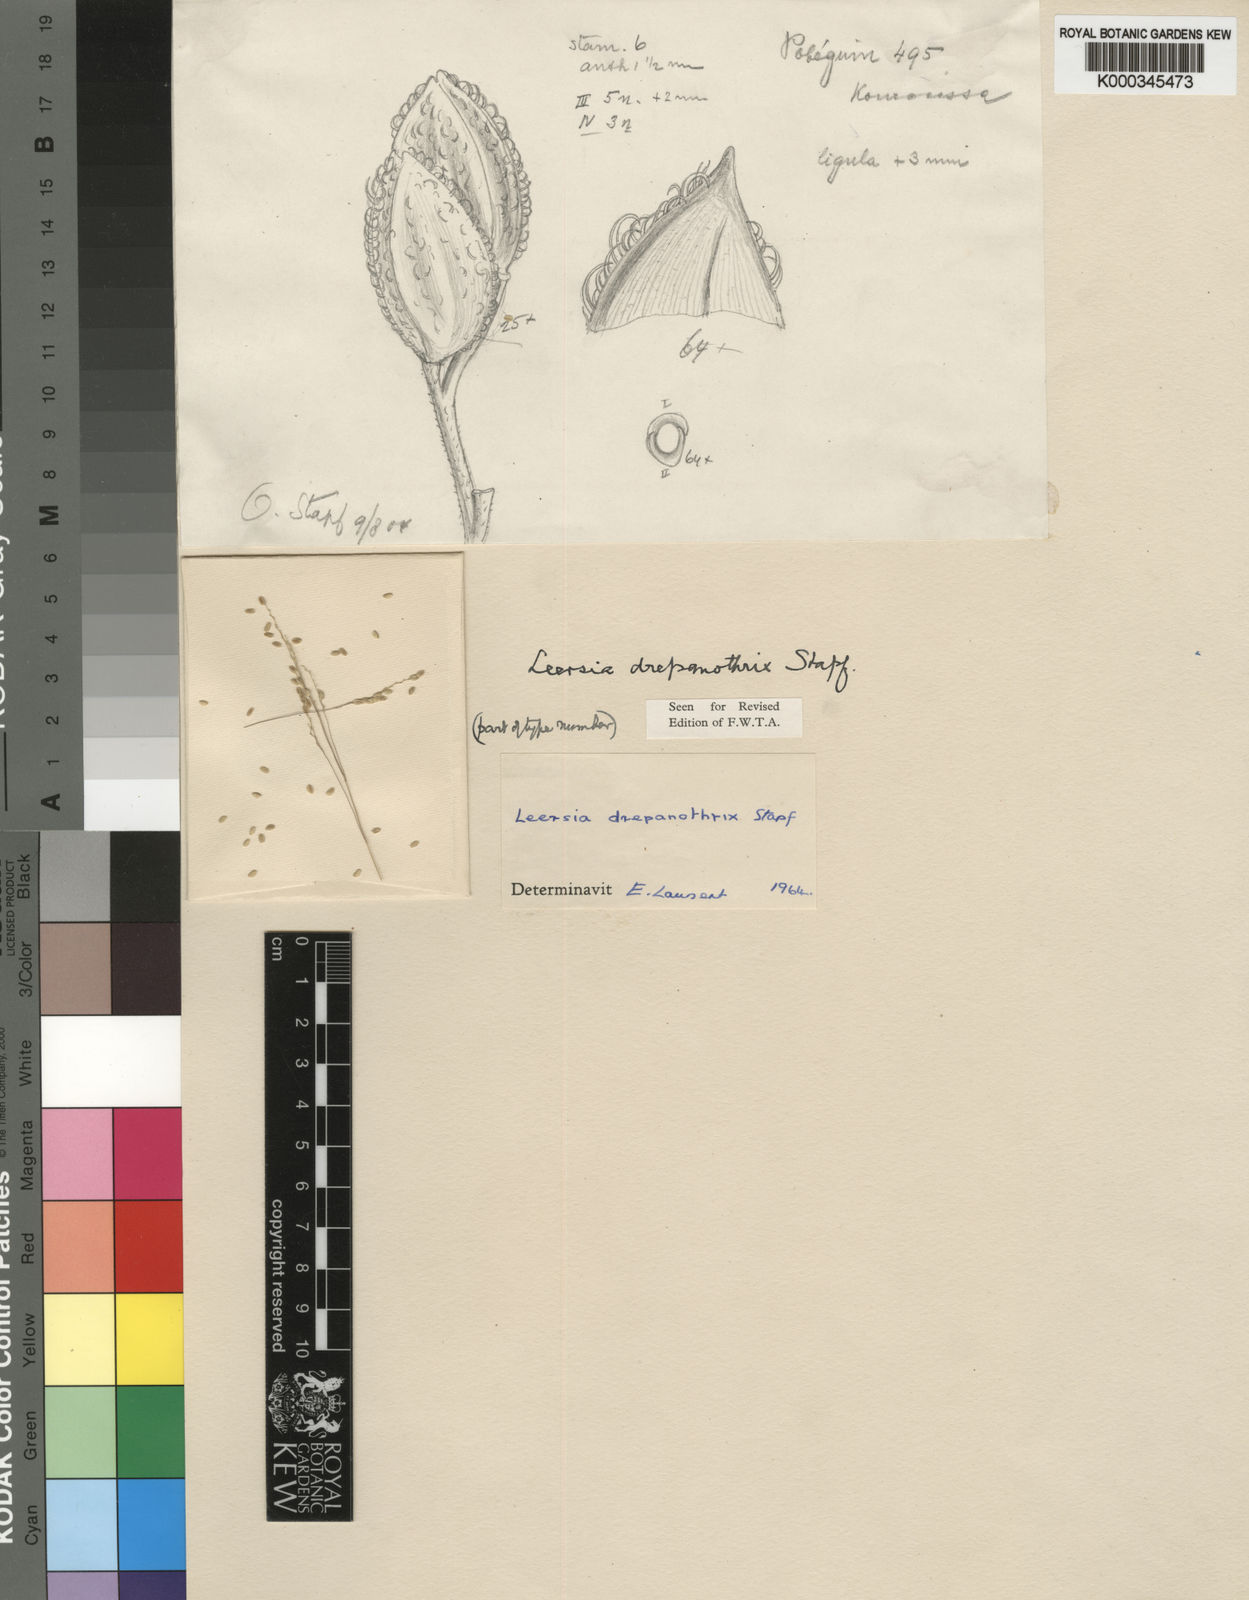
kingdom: Plantae
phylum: Tracheophyta
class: Liliopsida
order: Poales
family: Poaceae
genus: Leersia
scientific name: Leersia drepanothrix
